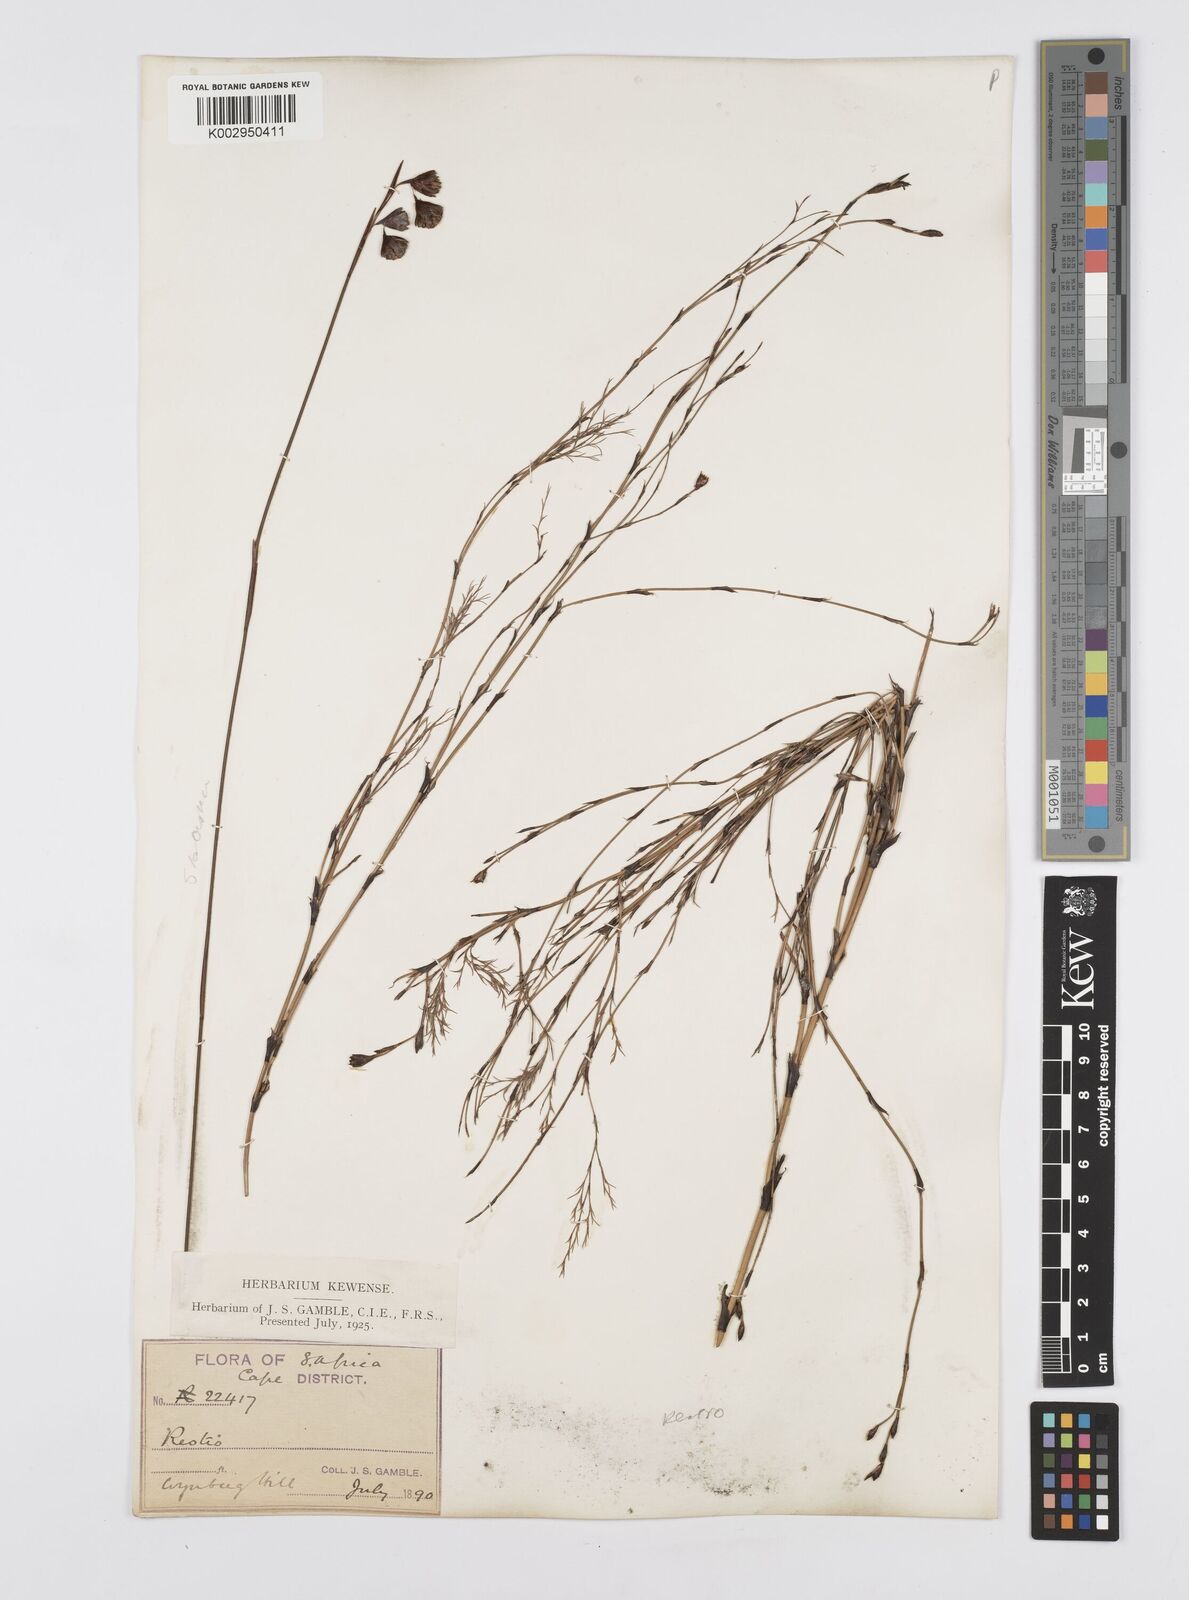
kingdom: Plantae
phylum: Tracheophyta
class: Liliopsida
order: Poales
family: Restionaceae
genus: Staberoha
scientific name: Staberoha
